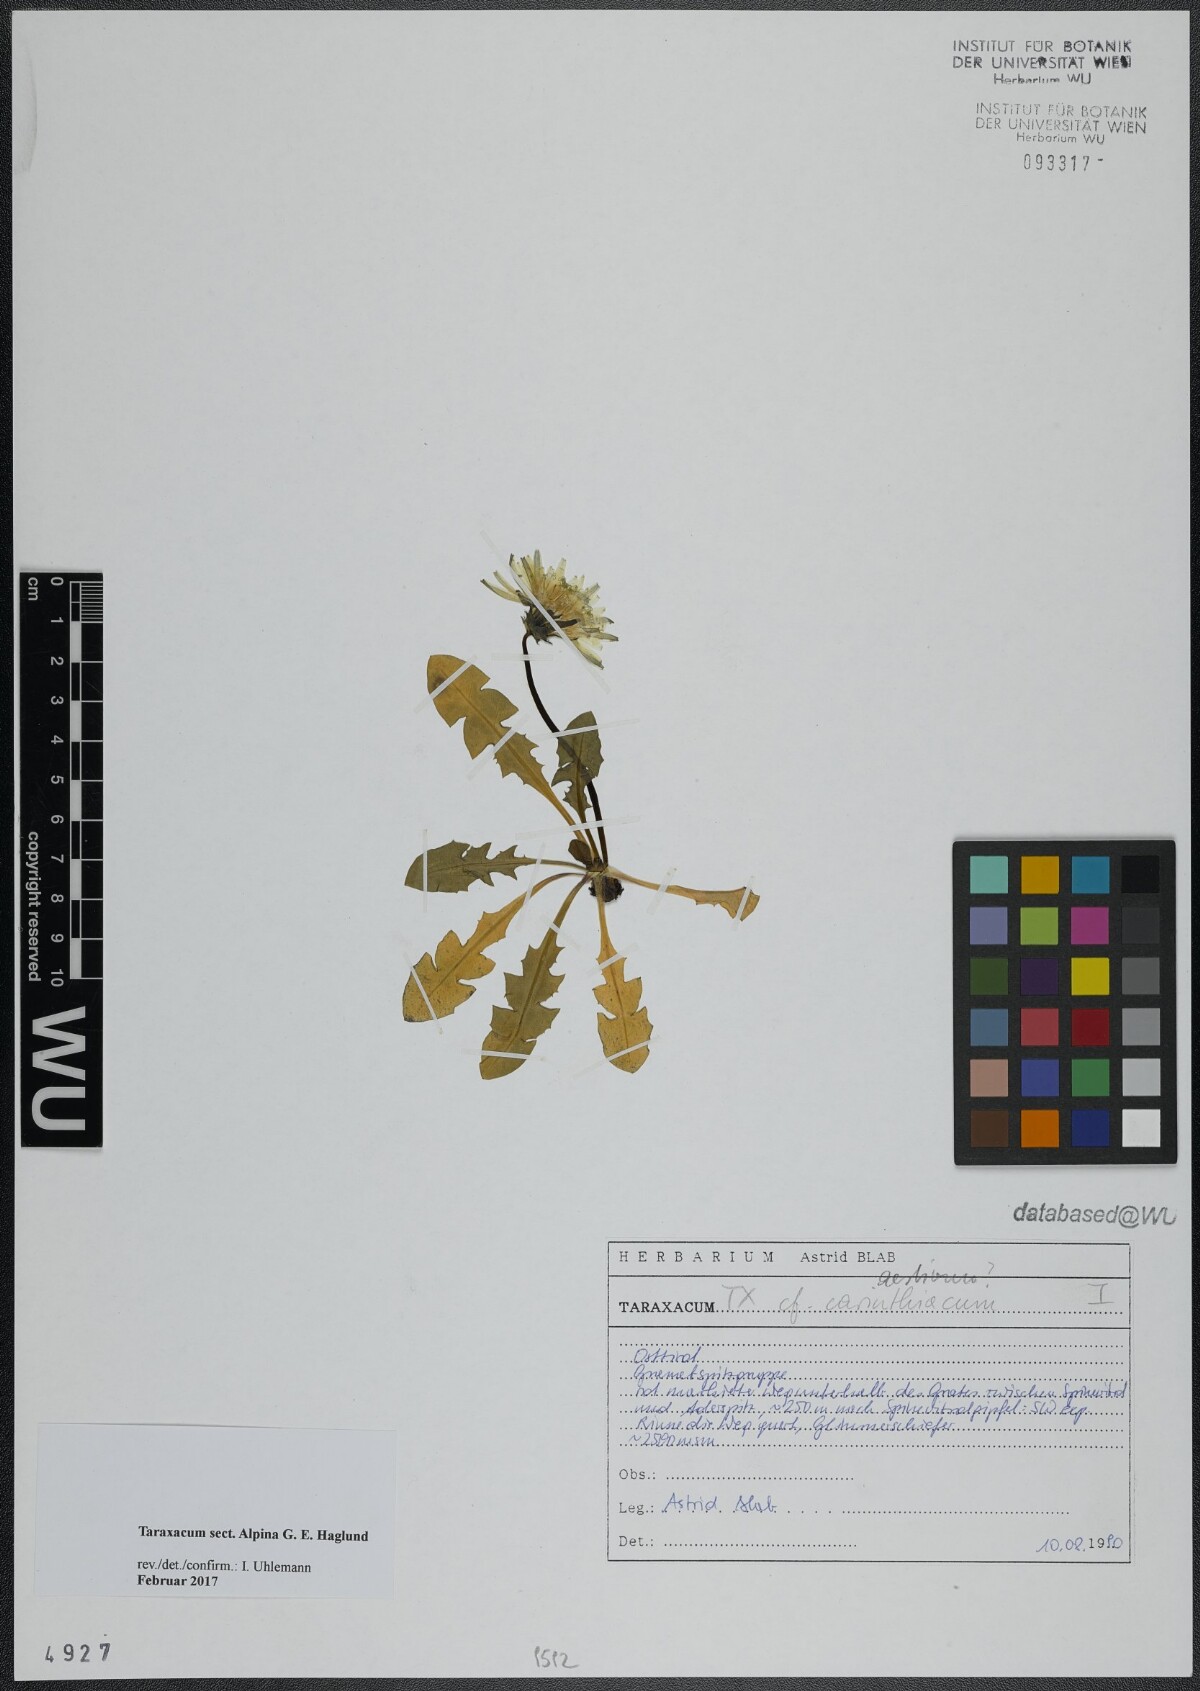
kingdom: Plantae
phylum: Tracheophyta
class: Magnoliopsida
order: Asterales
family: Asteraceae
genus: Taraxacum
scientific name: Taraxacum
